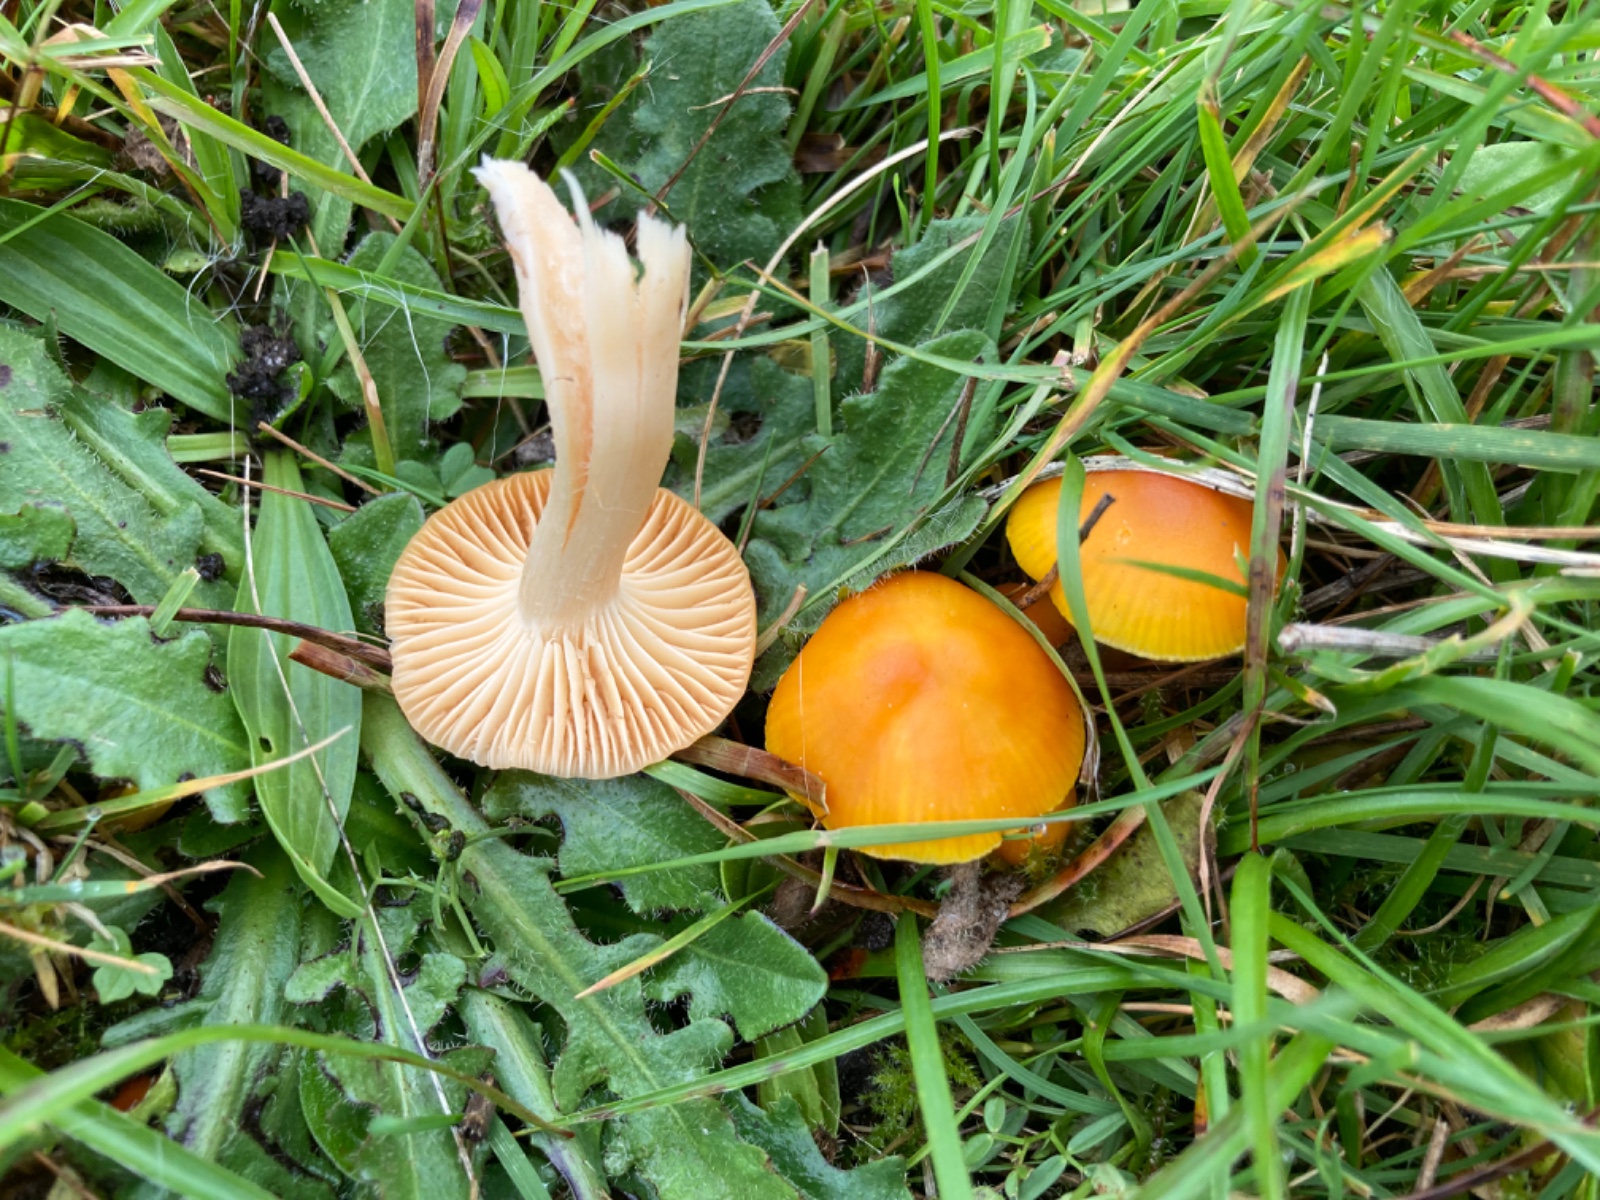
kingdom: Fungi
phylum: Basidiomycota
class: Agaricomycetes
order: Agaricales
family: Hygrophoraceae
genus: Hygrocybe
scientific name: Hygrocybe ceracea
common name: voksgul vokshat
